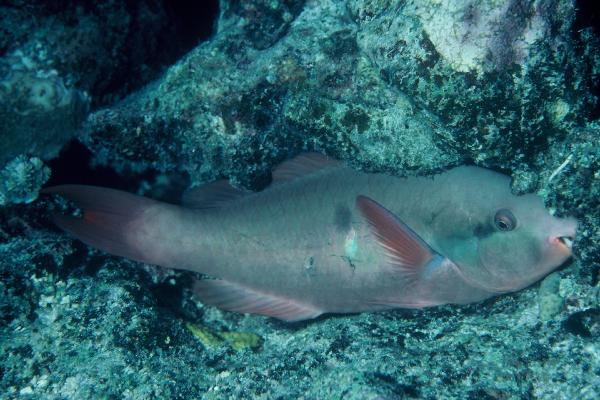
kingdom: Animalia
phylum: Chordata
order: Perciformes
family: Scaridae
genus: Scarus
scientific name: Scarus forsteni
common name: Forsten's parrotfish
